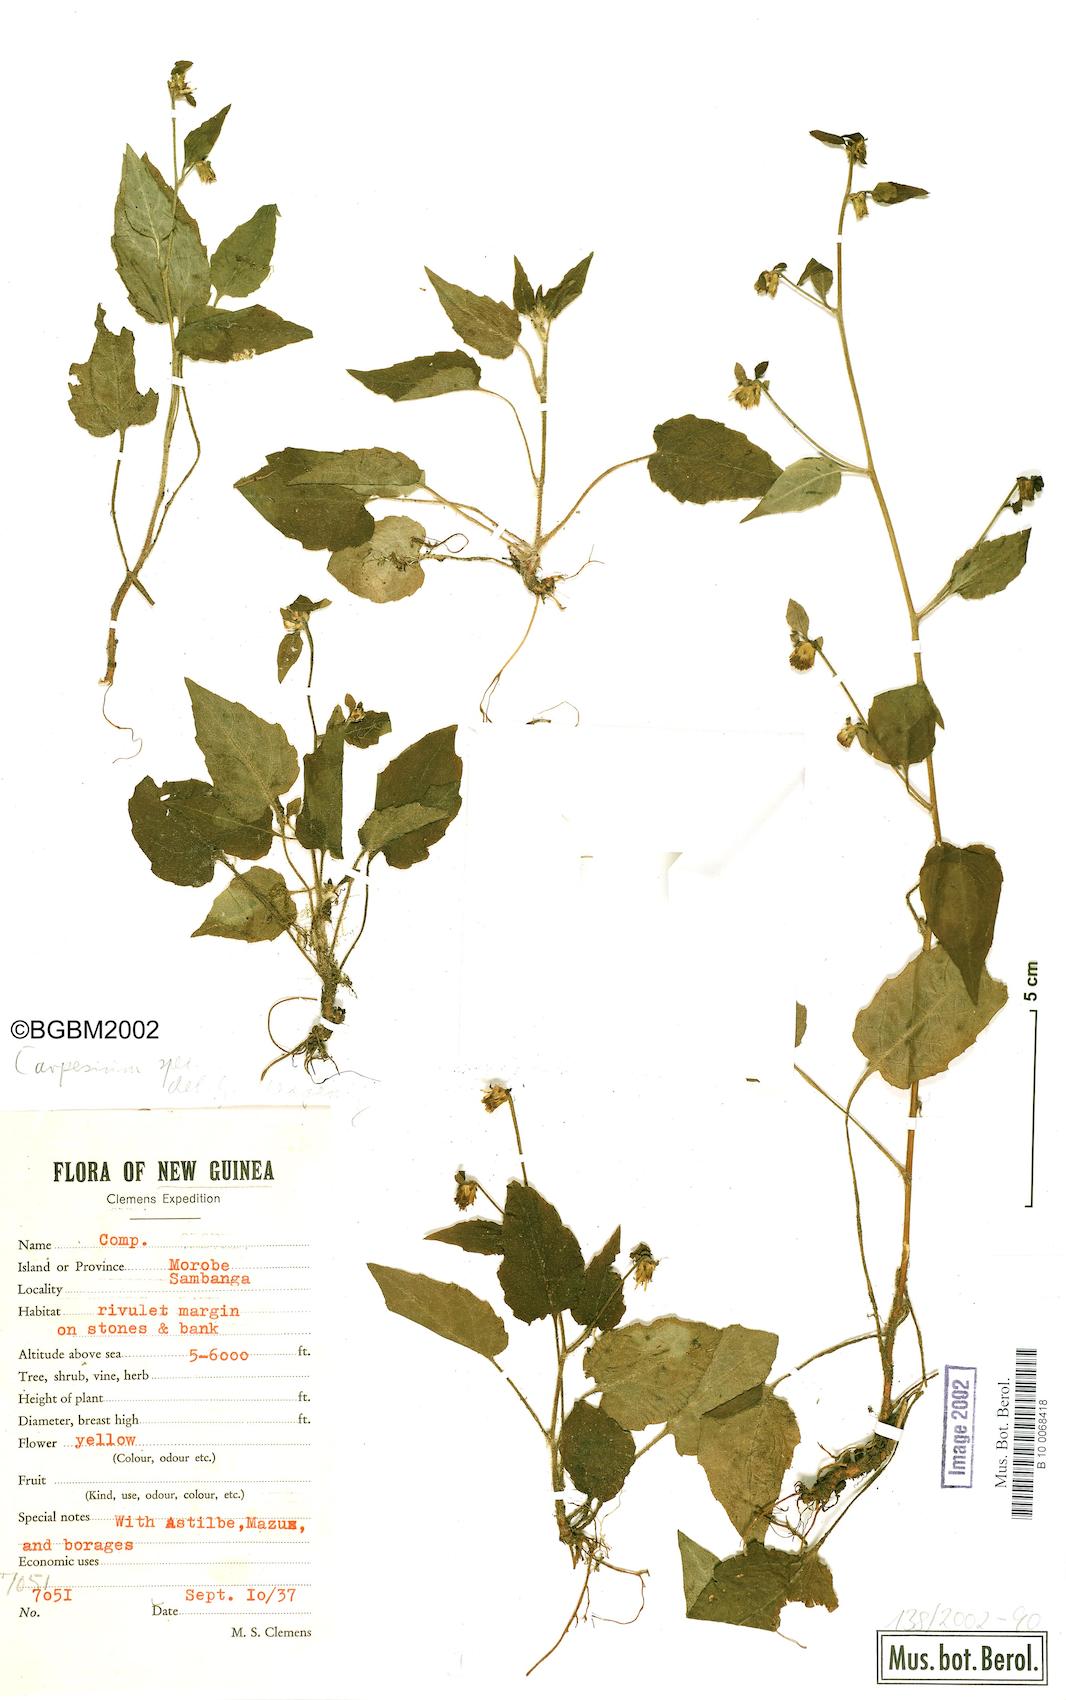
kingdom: Plantae
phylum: Tracheophyta
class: Magnoliopsida
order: Asterales
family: Asteraceae
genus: Carpesium
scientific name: Carpesium trachelifolium
